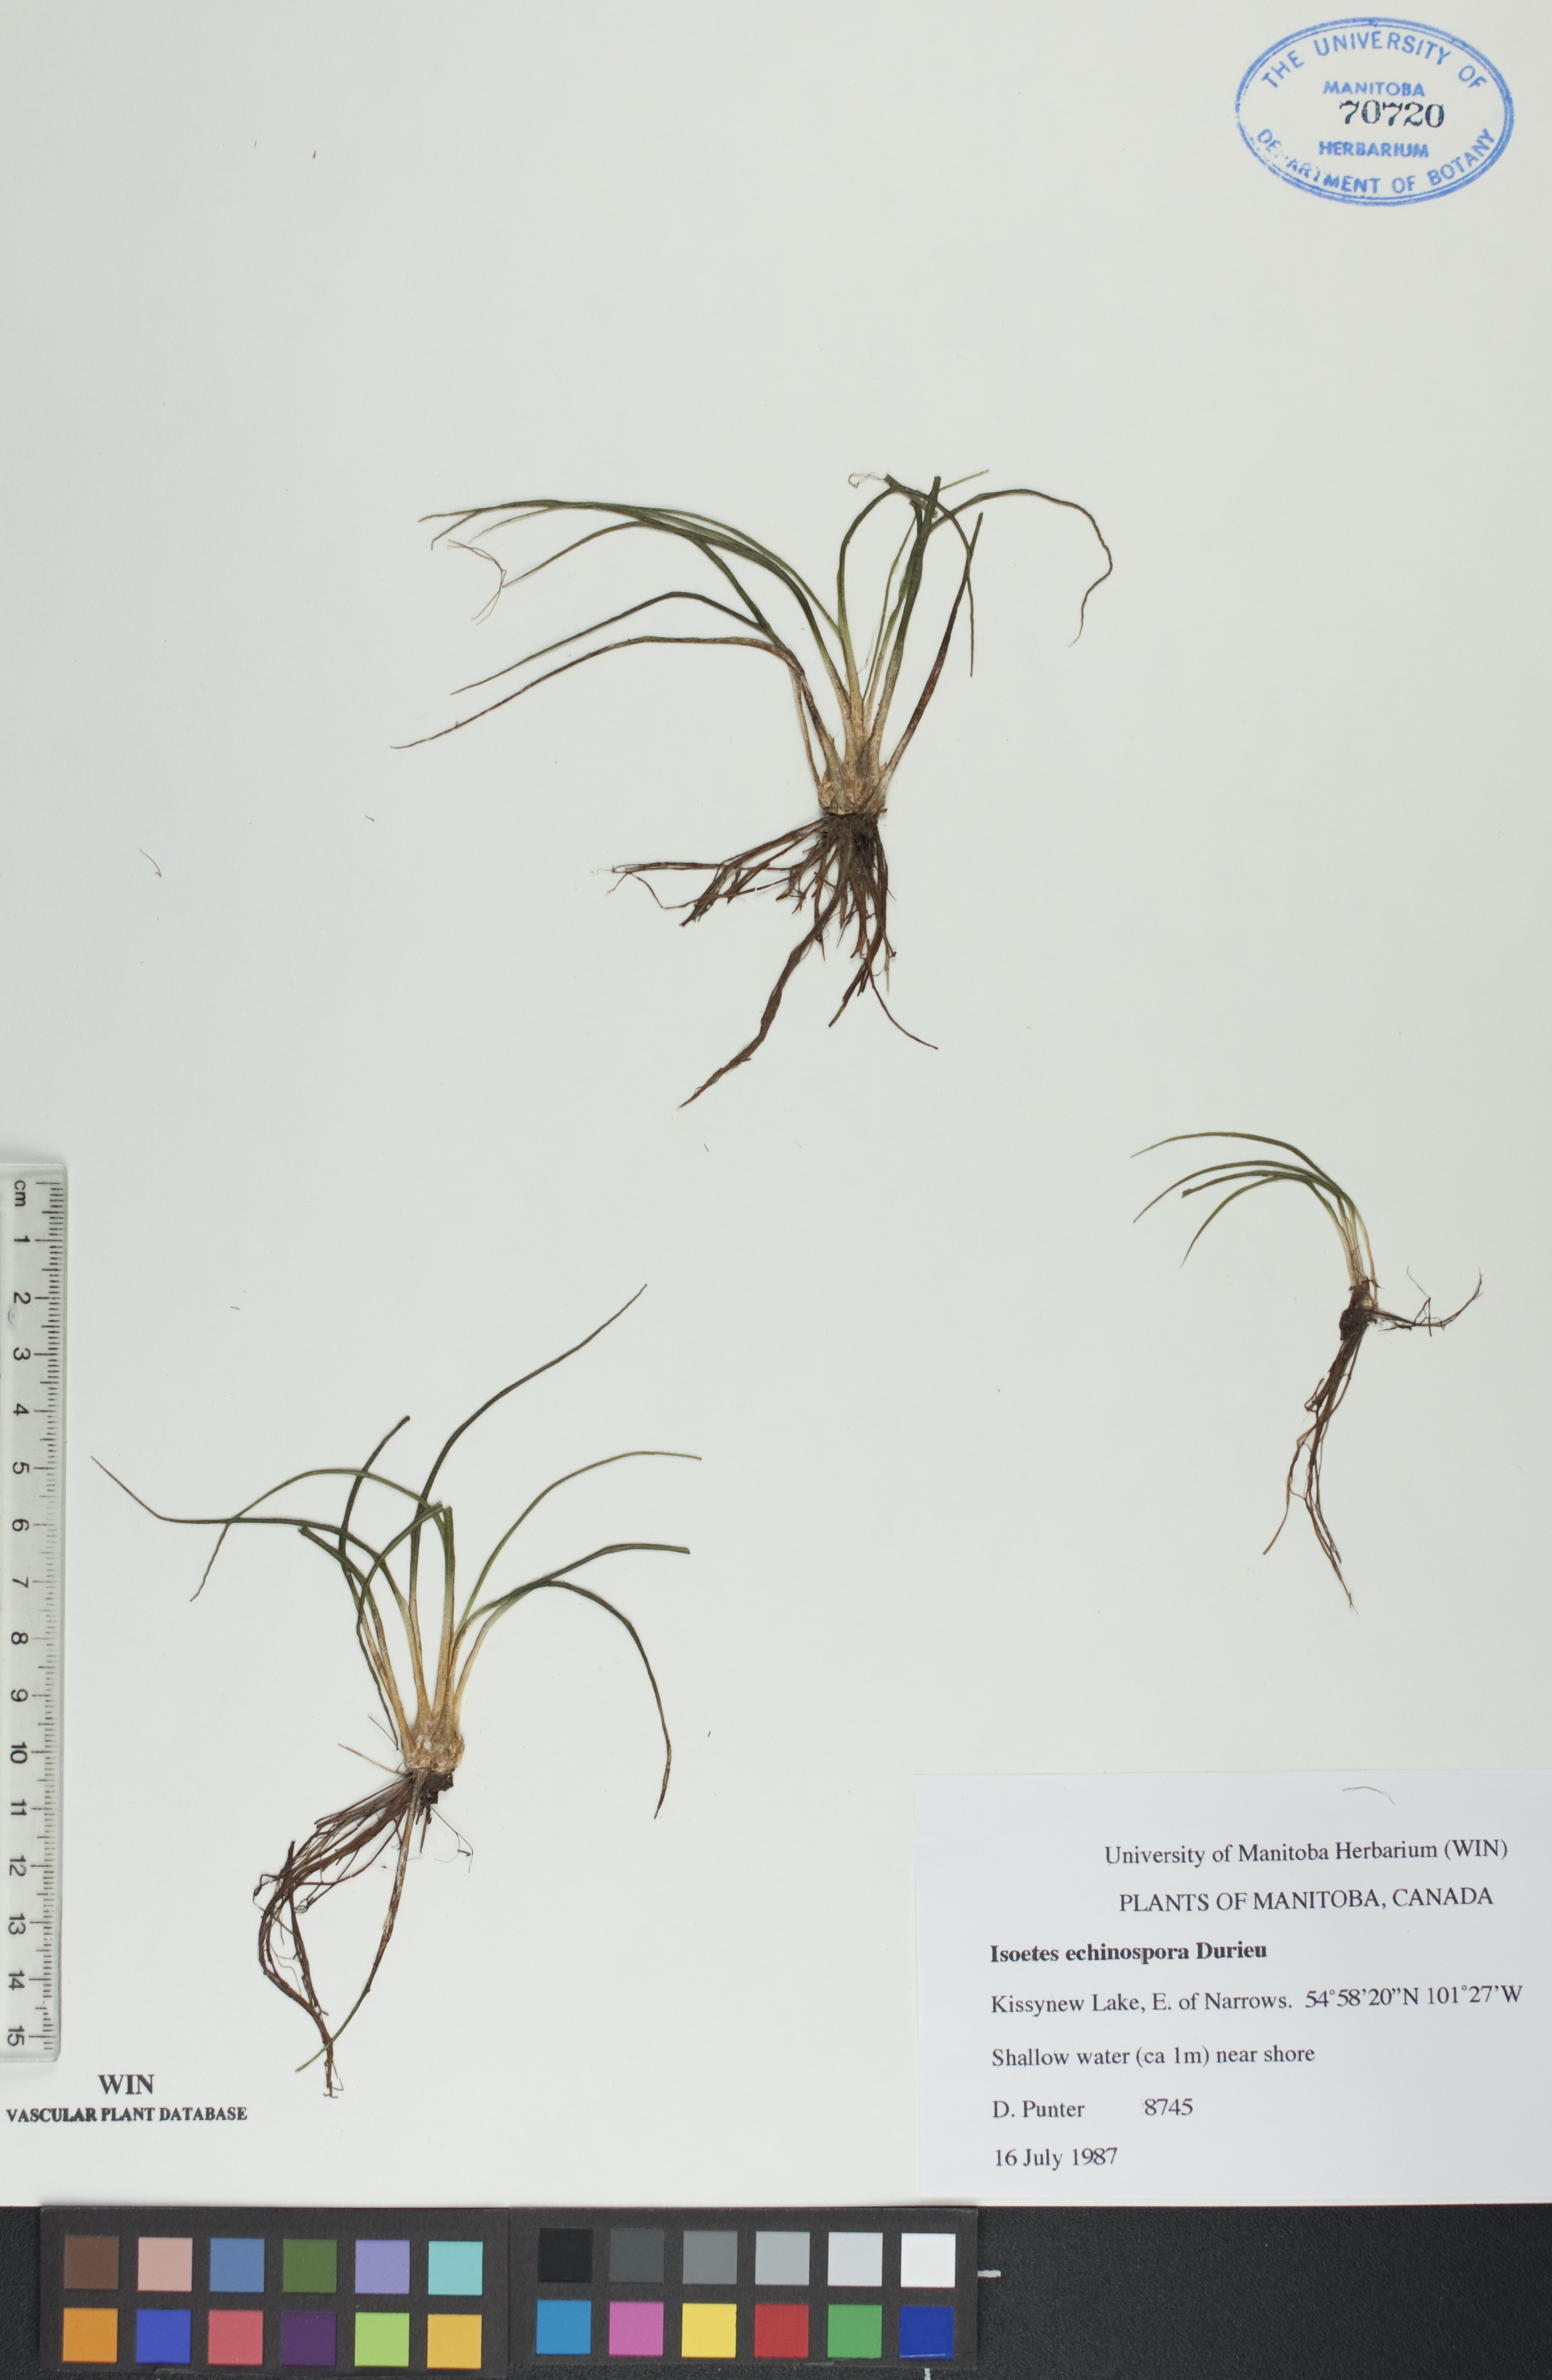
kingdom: Plantae
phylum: Tracheophyta
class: Lycopodiopsida
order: Isoetales
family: Isoetaceae
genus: Isoetes
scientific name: Isoetes echinospora
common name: Spring quillwort
